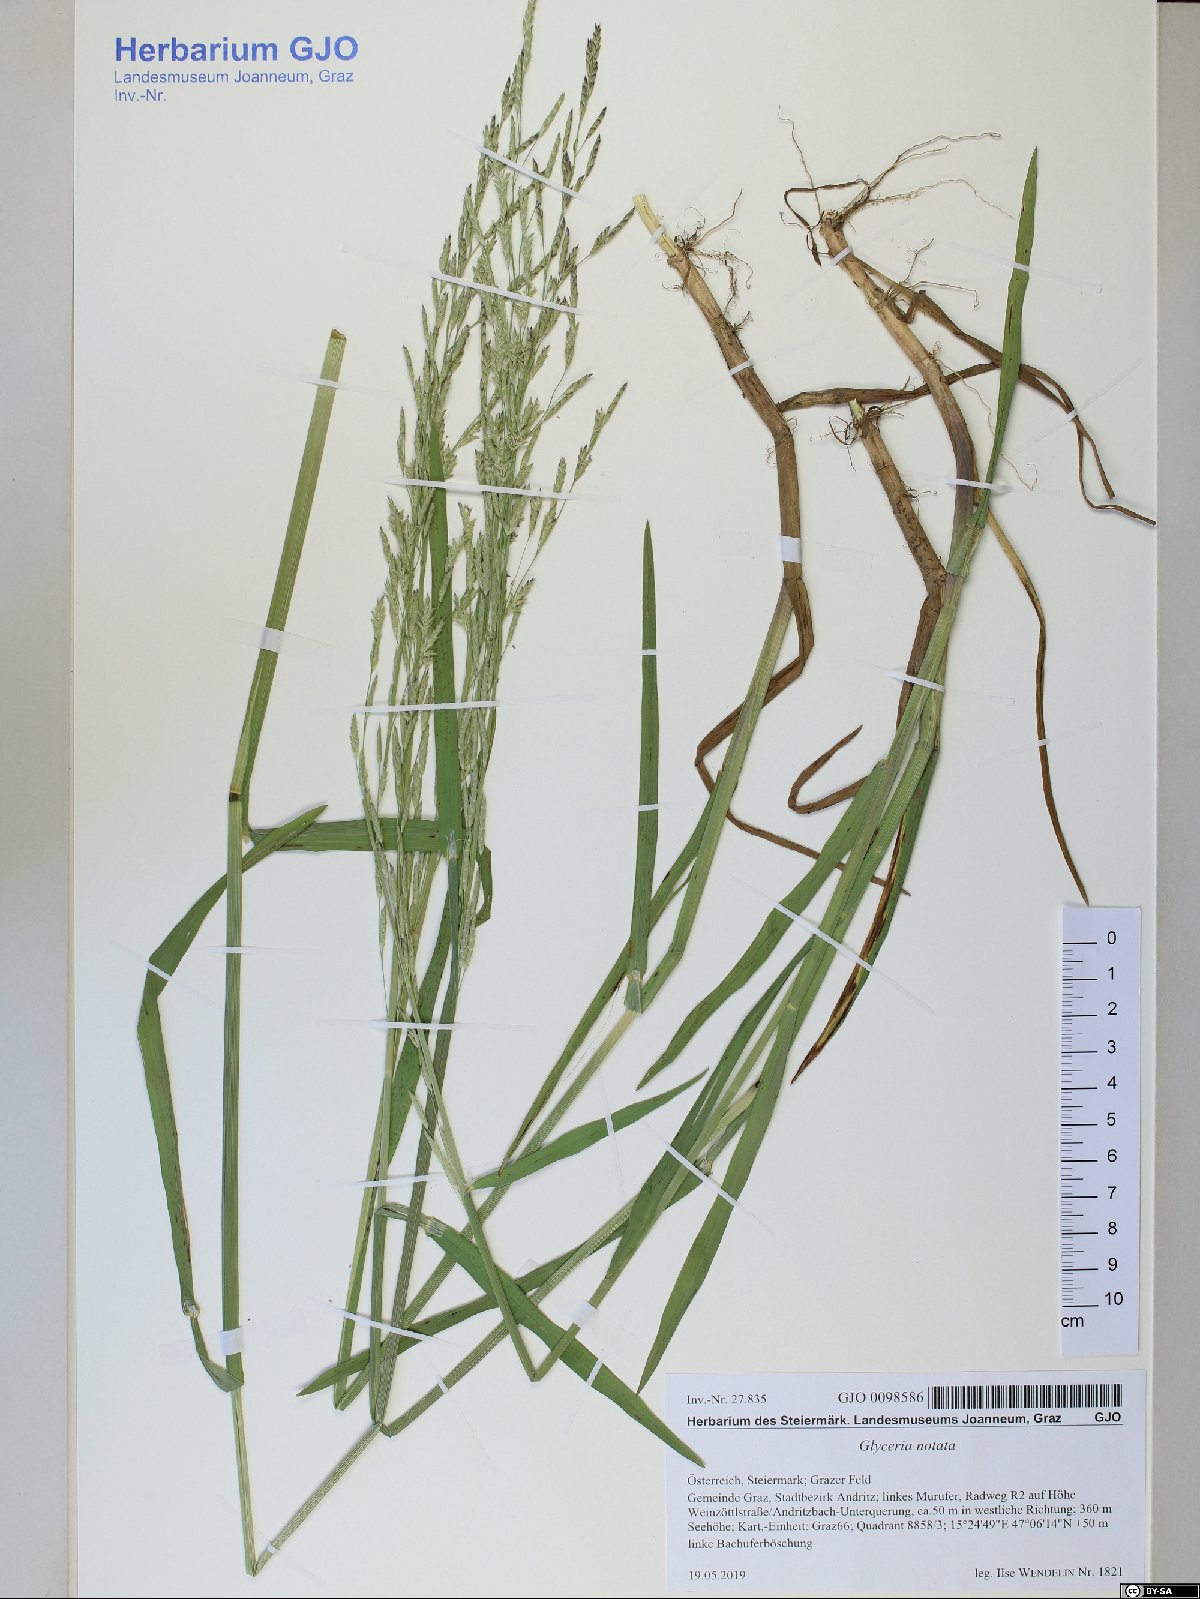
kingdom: Plantae
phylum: Tracheophyta
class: Liliopsida
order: Poales
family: Poaceae
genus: Glyceria
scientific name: Glyceria notata
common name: Plicate sweet-grass
